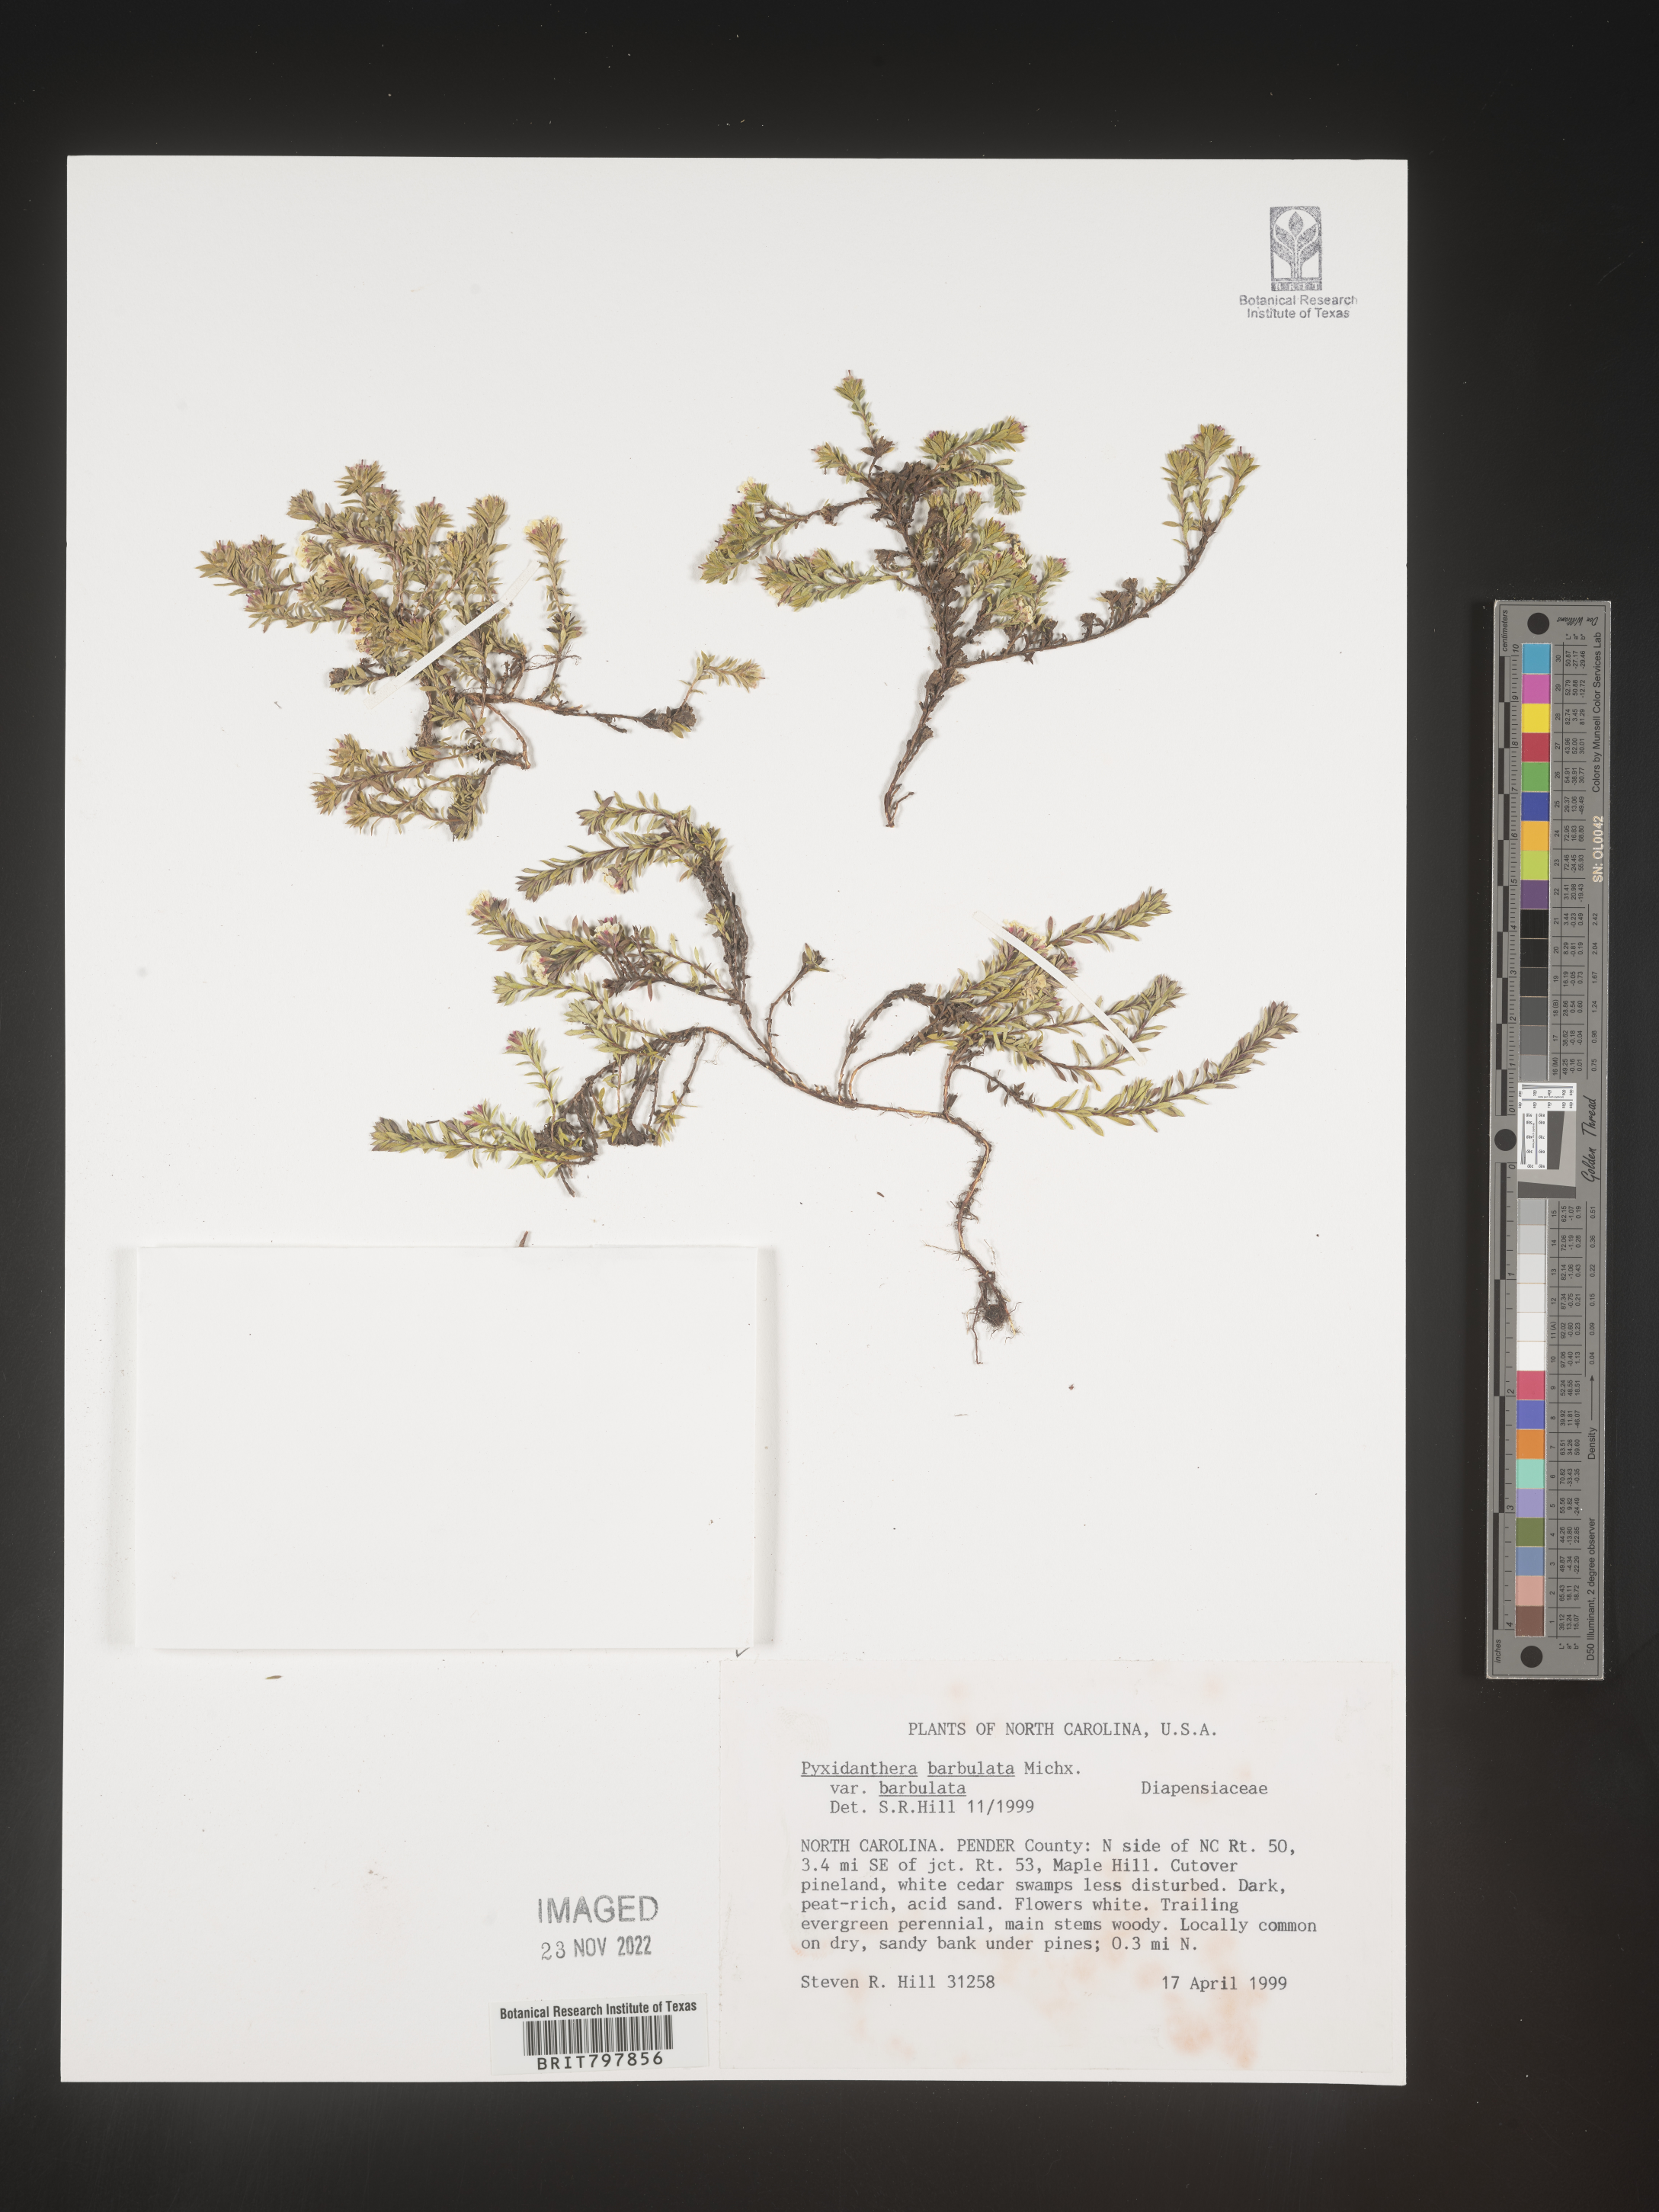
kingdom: Plantae
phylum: Tracheophyta
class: Magnoliopsida
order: Ericales
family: Diapensiaceae
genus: Pyxidanthera
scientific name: Pyxidanthera barbulata
